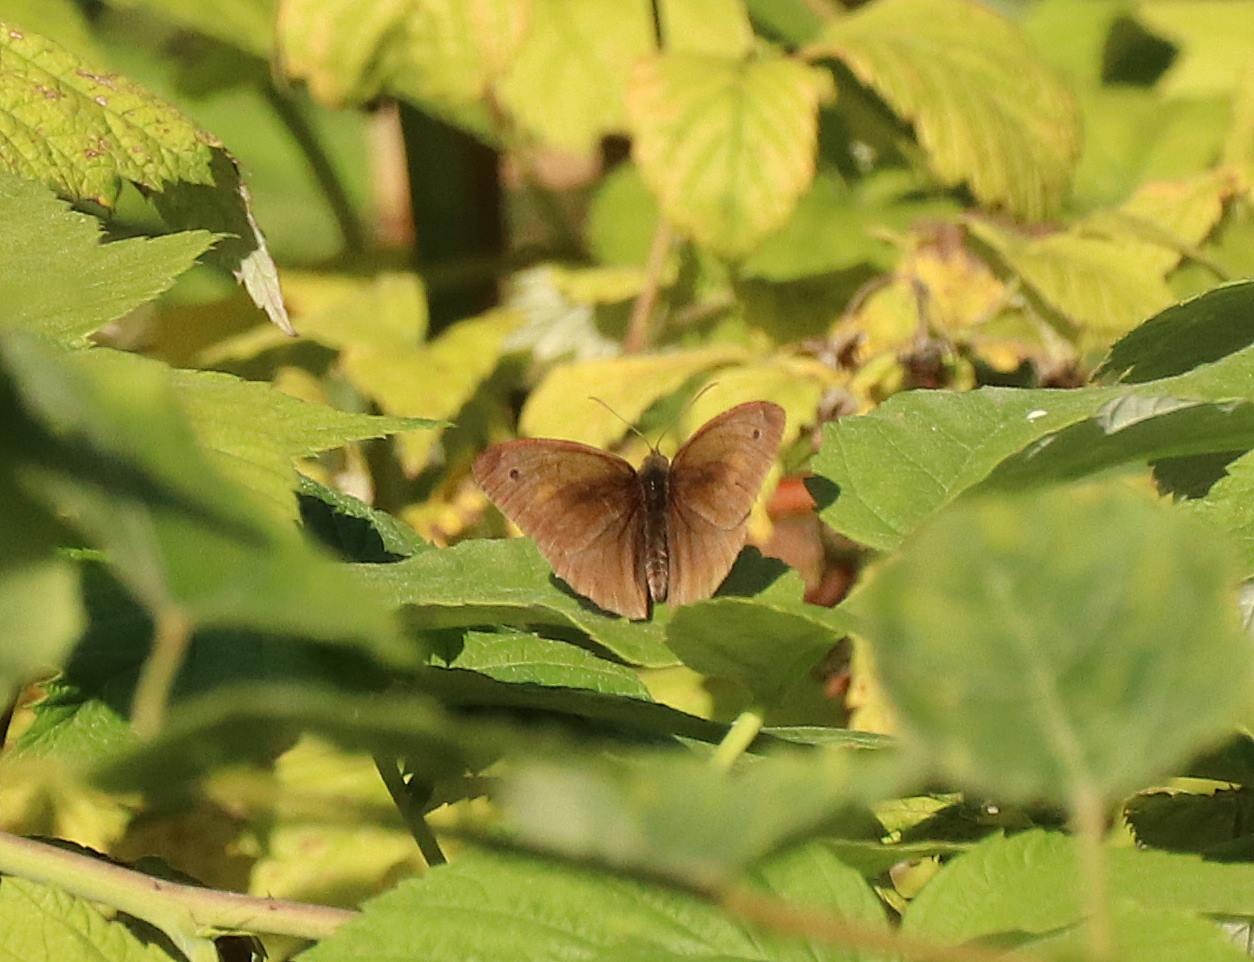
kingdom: Animalia
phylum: Arthropoda
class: Insecta
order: Lepidoptera
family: Nymphalidae
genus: Maniola
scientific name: Maniola jurtina
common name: Græsrandøje
